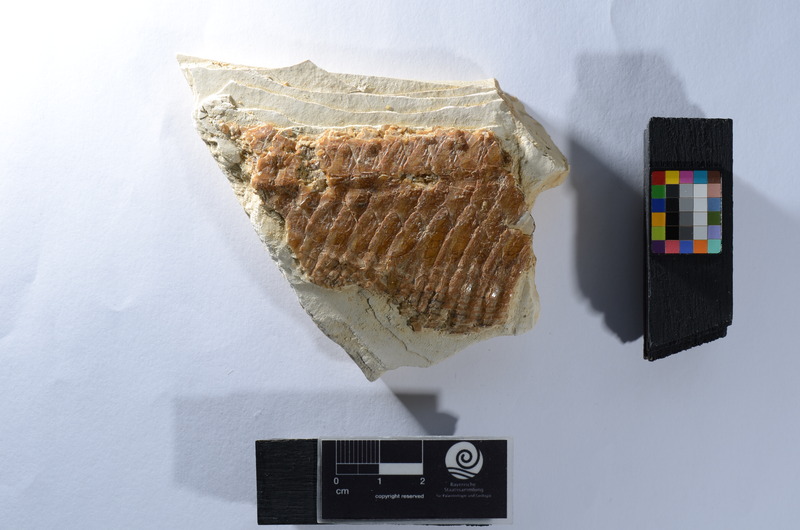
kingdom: Animalia
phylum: Chordata
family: Aspidorhynchidae
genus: Aspidorhynchus
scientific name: Aspidorhynchus
